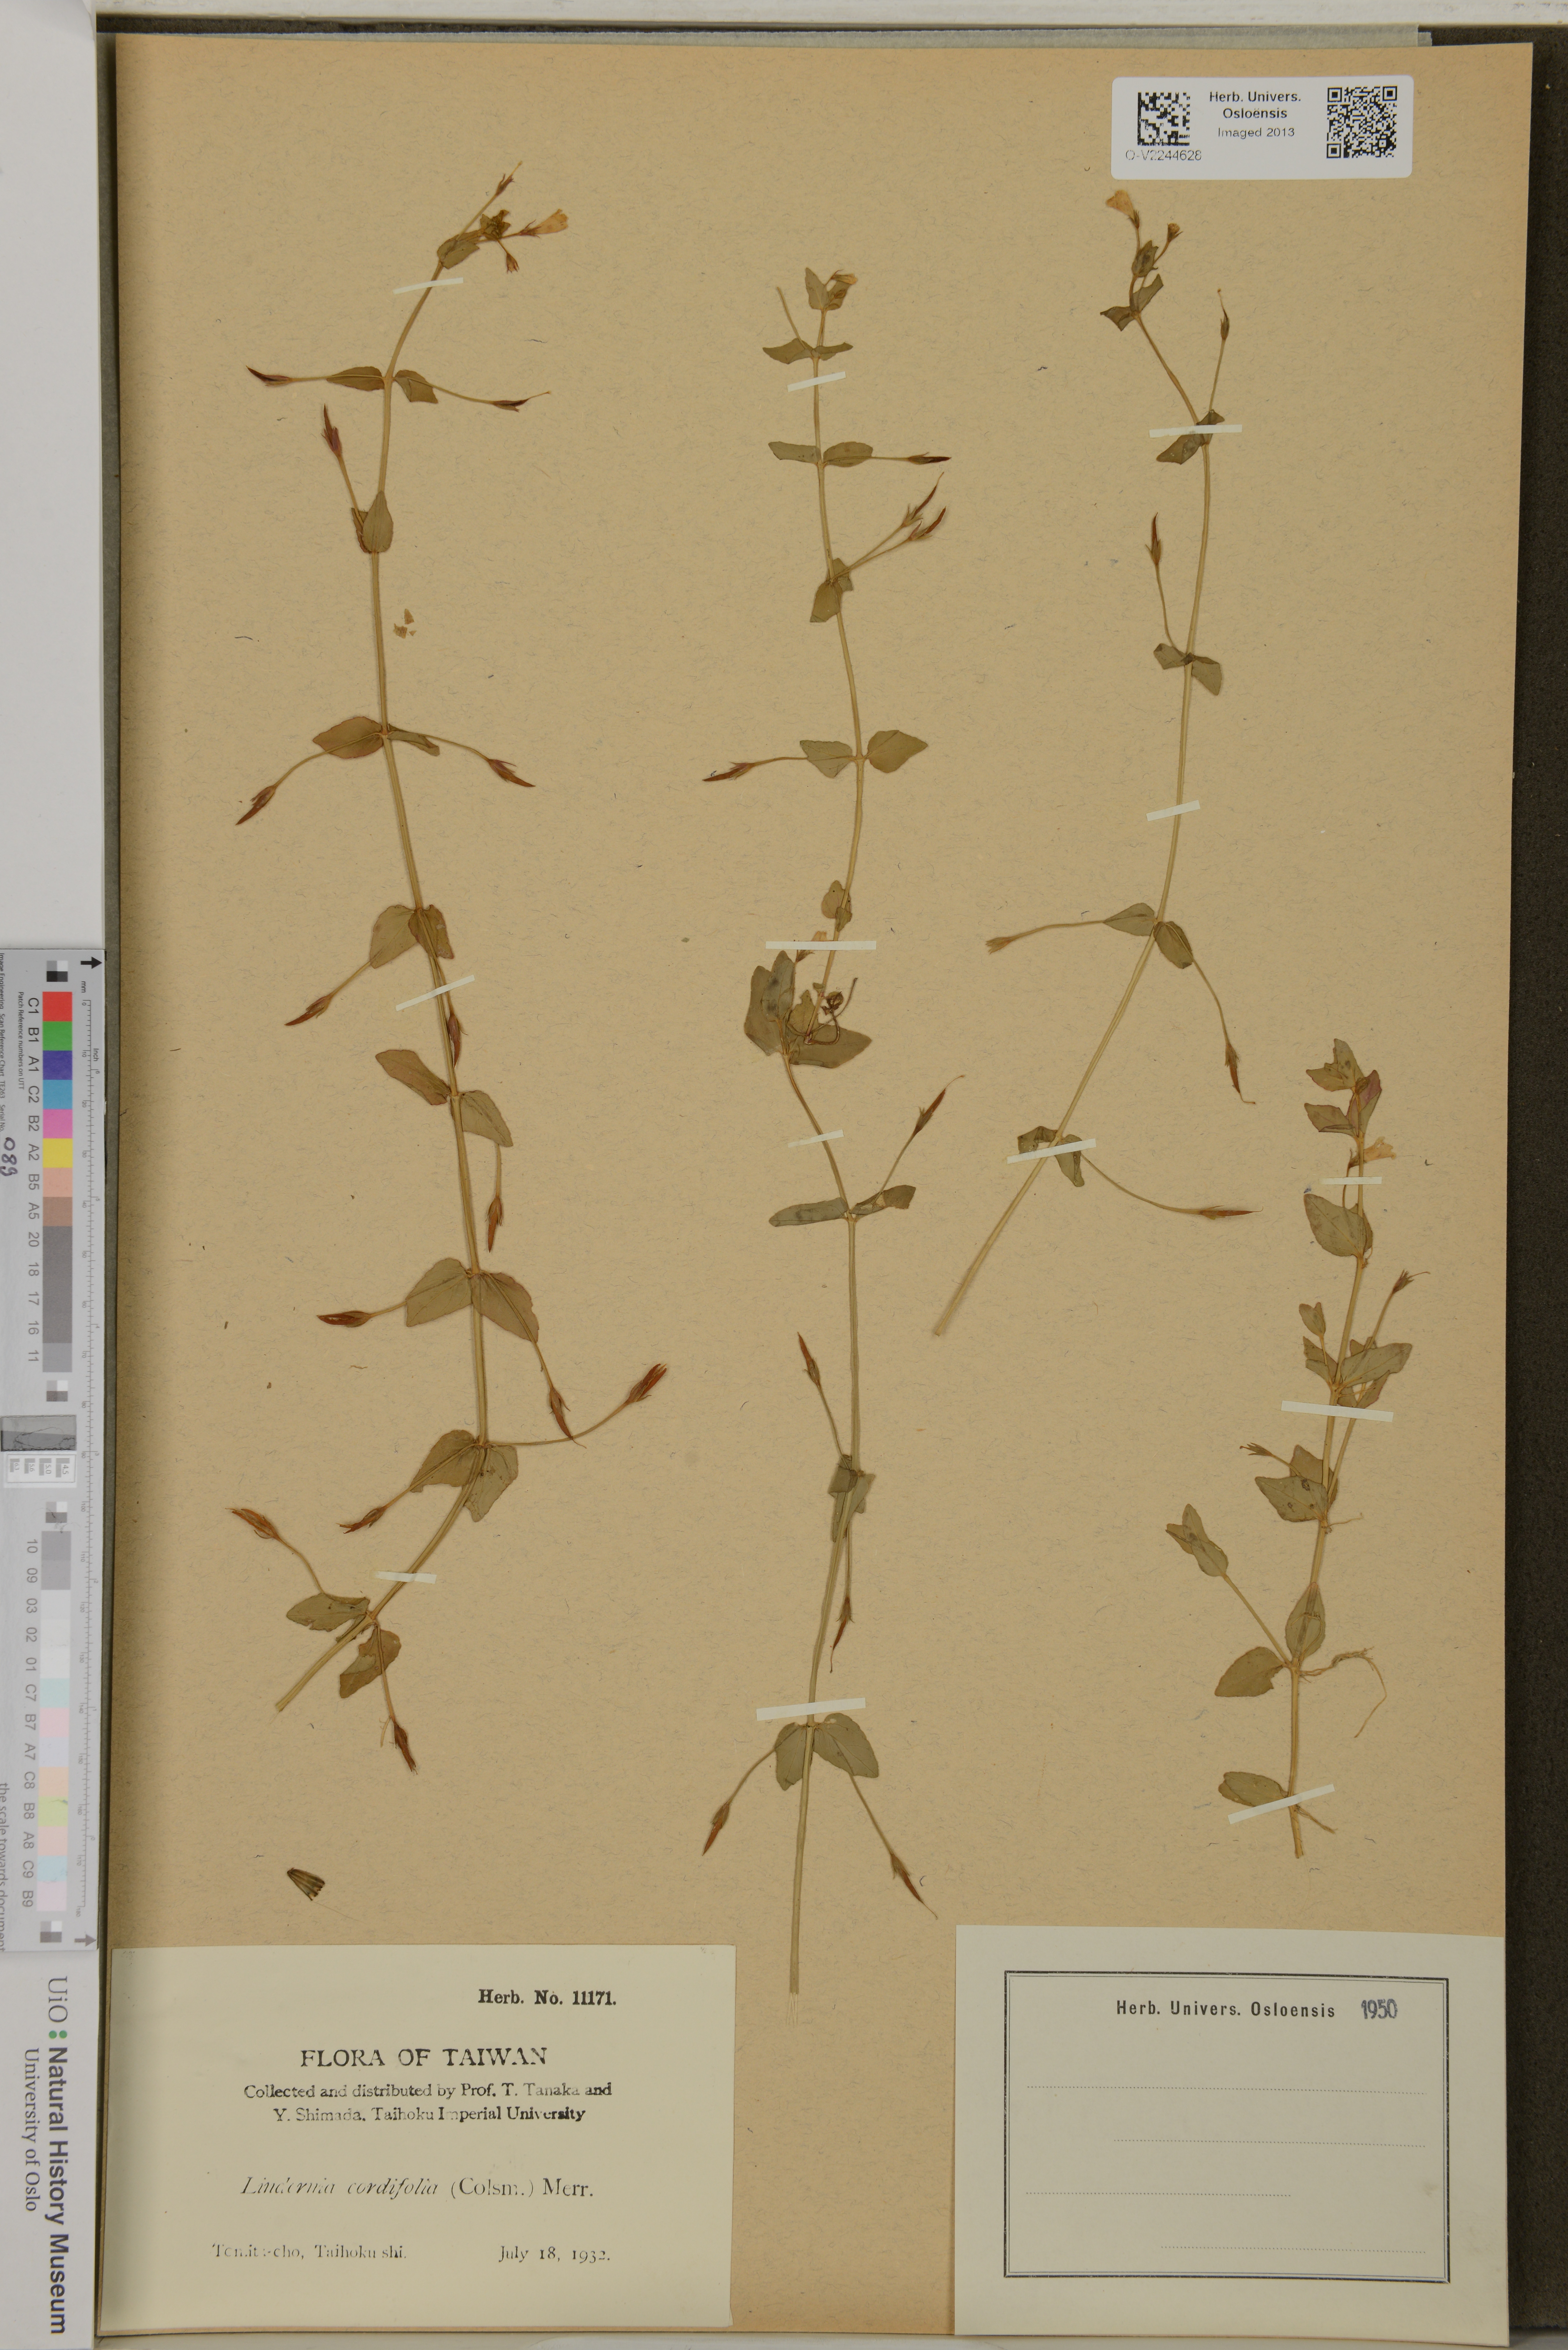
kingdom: Plantae
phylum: Tracheophyta
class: Magnoliopsida
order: Lamiales
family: Linderniaceae
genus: Torenia
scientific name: Torenia anagallis
